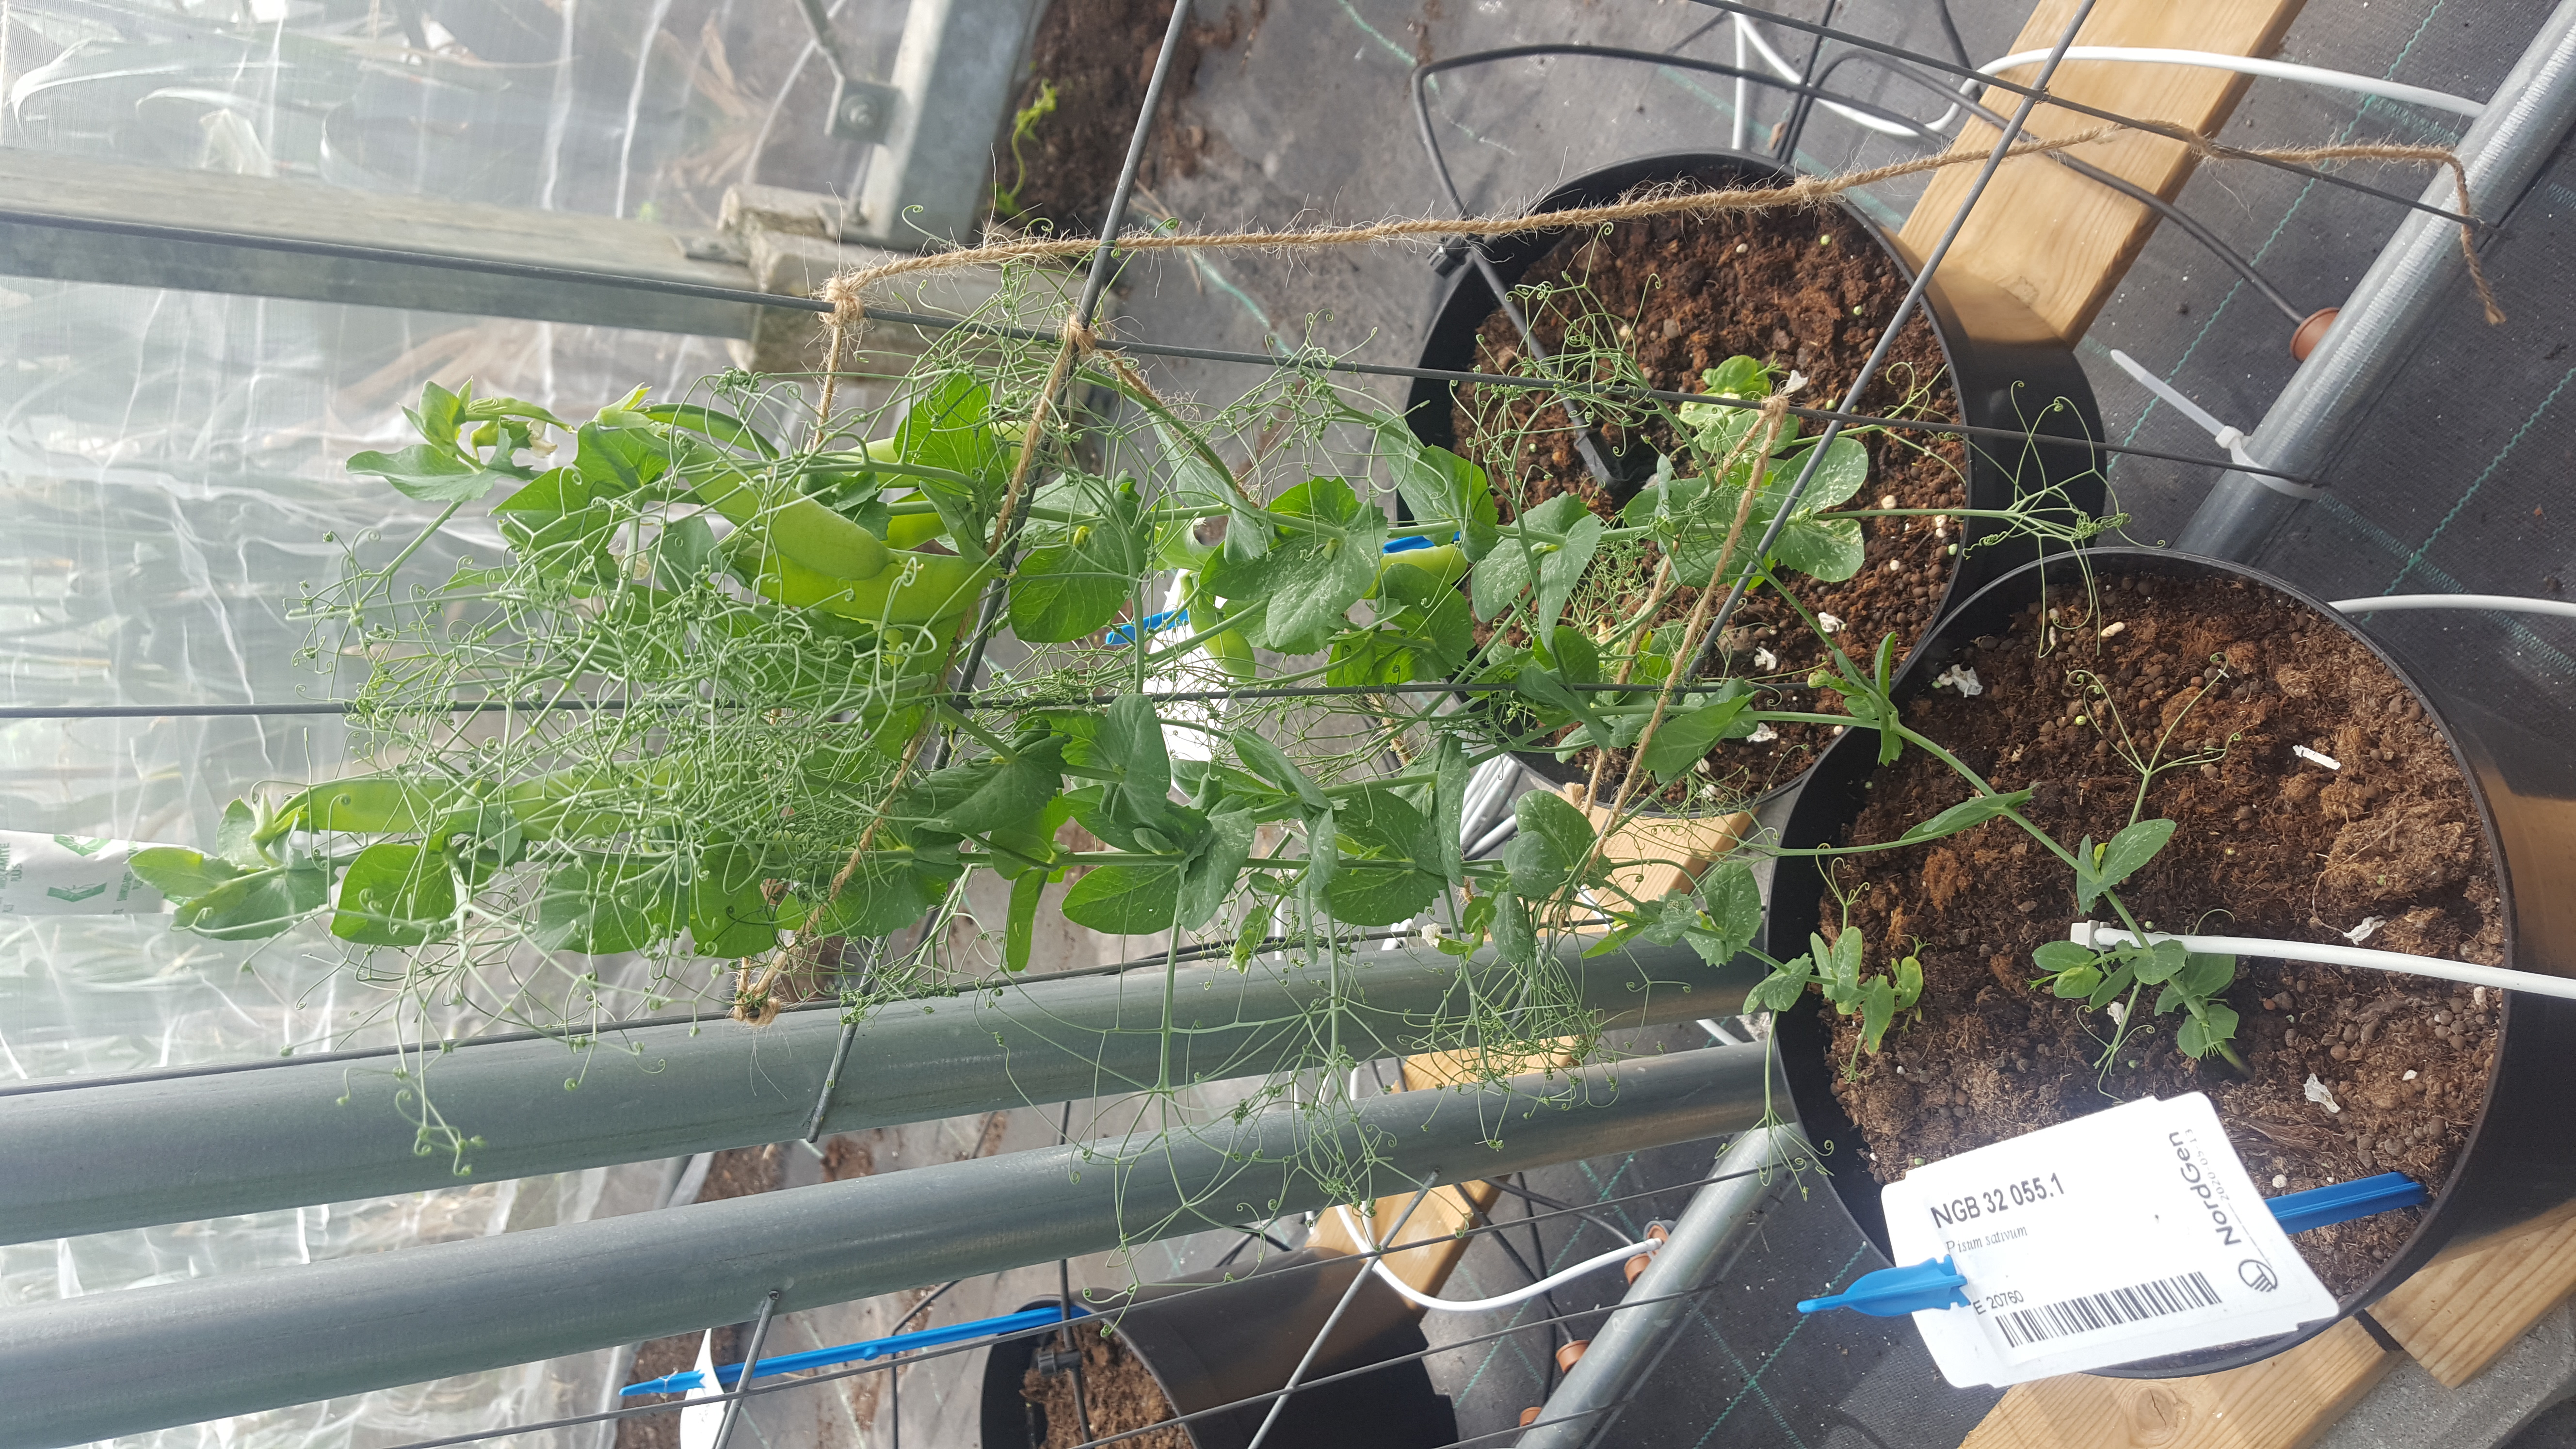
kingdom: Plantae
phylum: Tracheophyta
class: Magnoliopsida
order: Fabales
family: Fabaceae
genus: Lathyrus
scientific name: Lathyrus oleraceus
